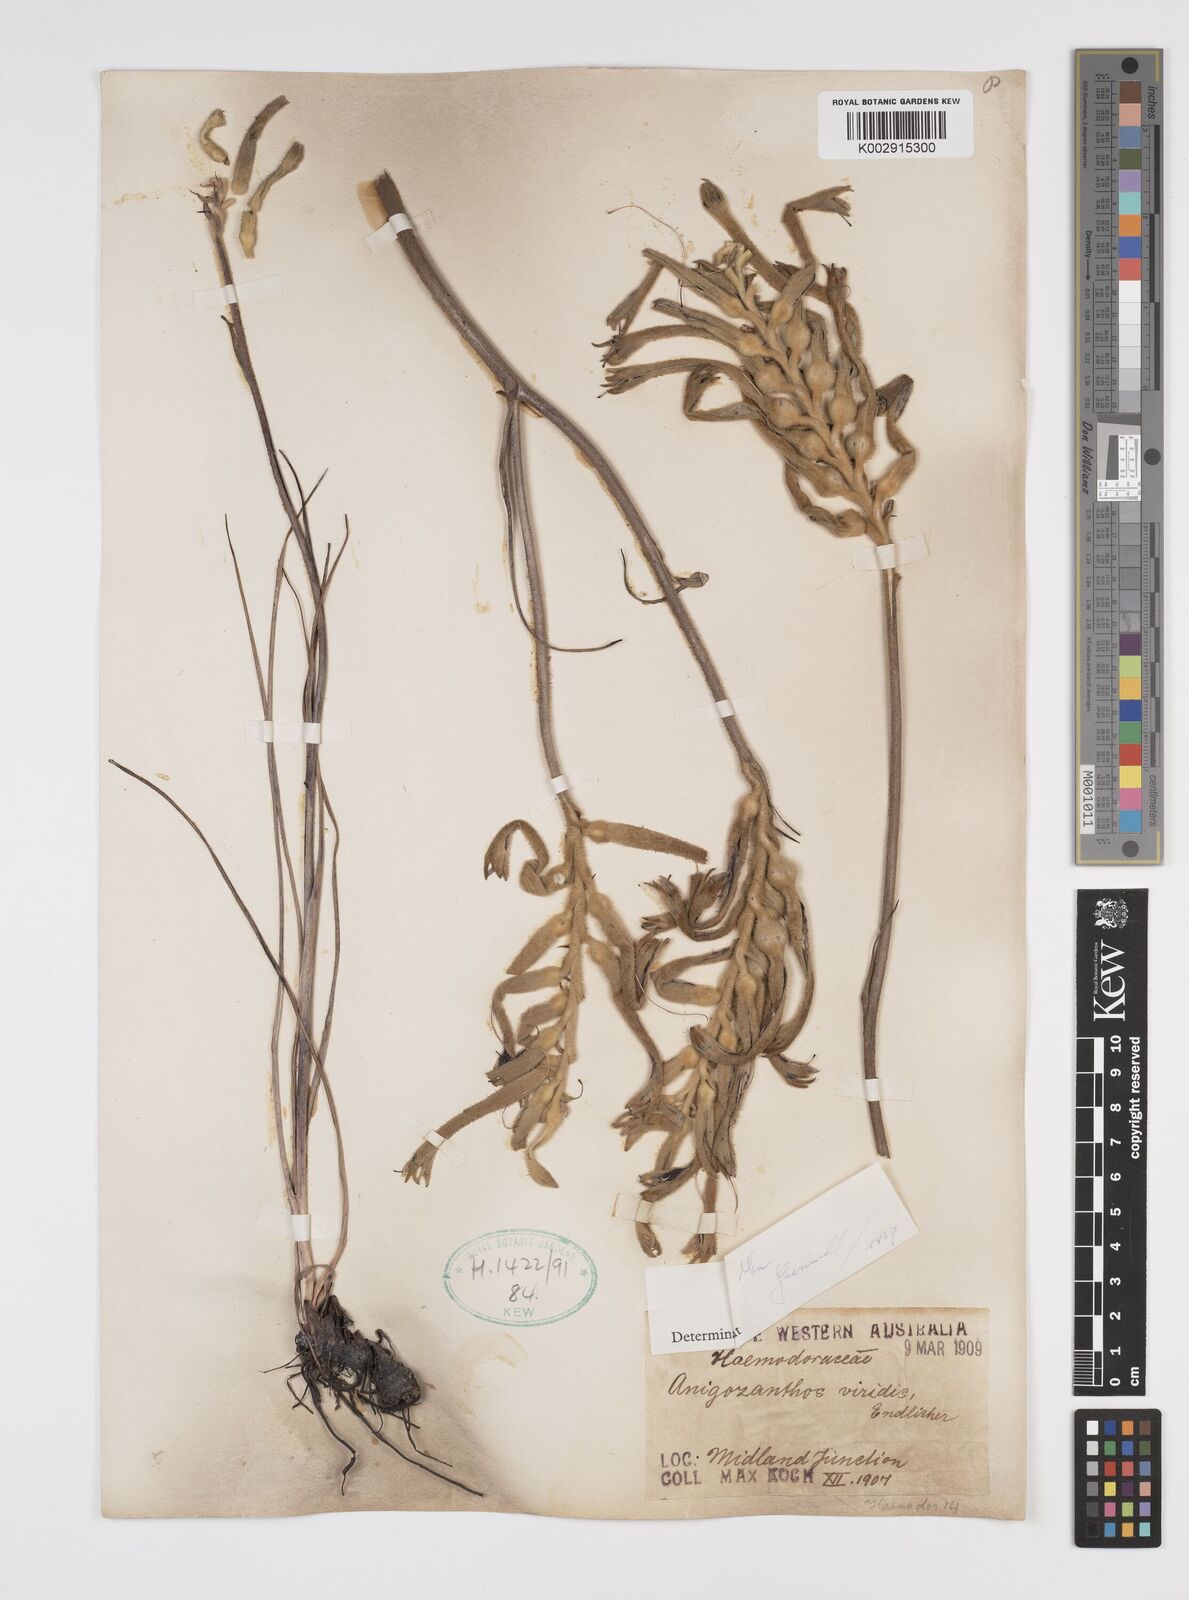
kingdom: Plantae
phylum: Tracheophyta
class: Liliopsida
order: Commelinales
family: Haemodoraceae
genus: Anigozanthos
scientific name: Anigozanthos viridis
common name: Green kangaroo-paw
